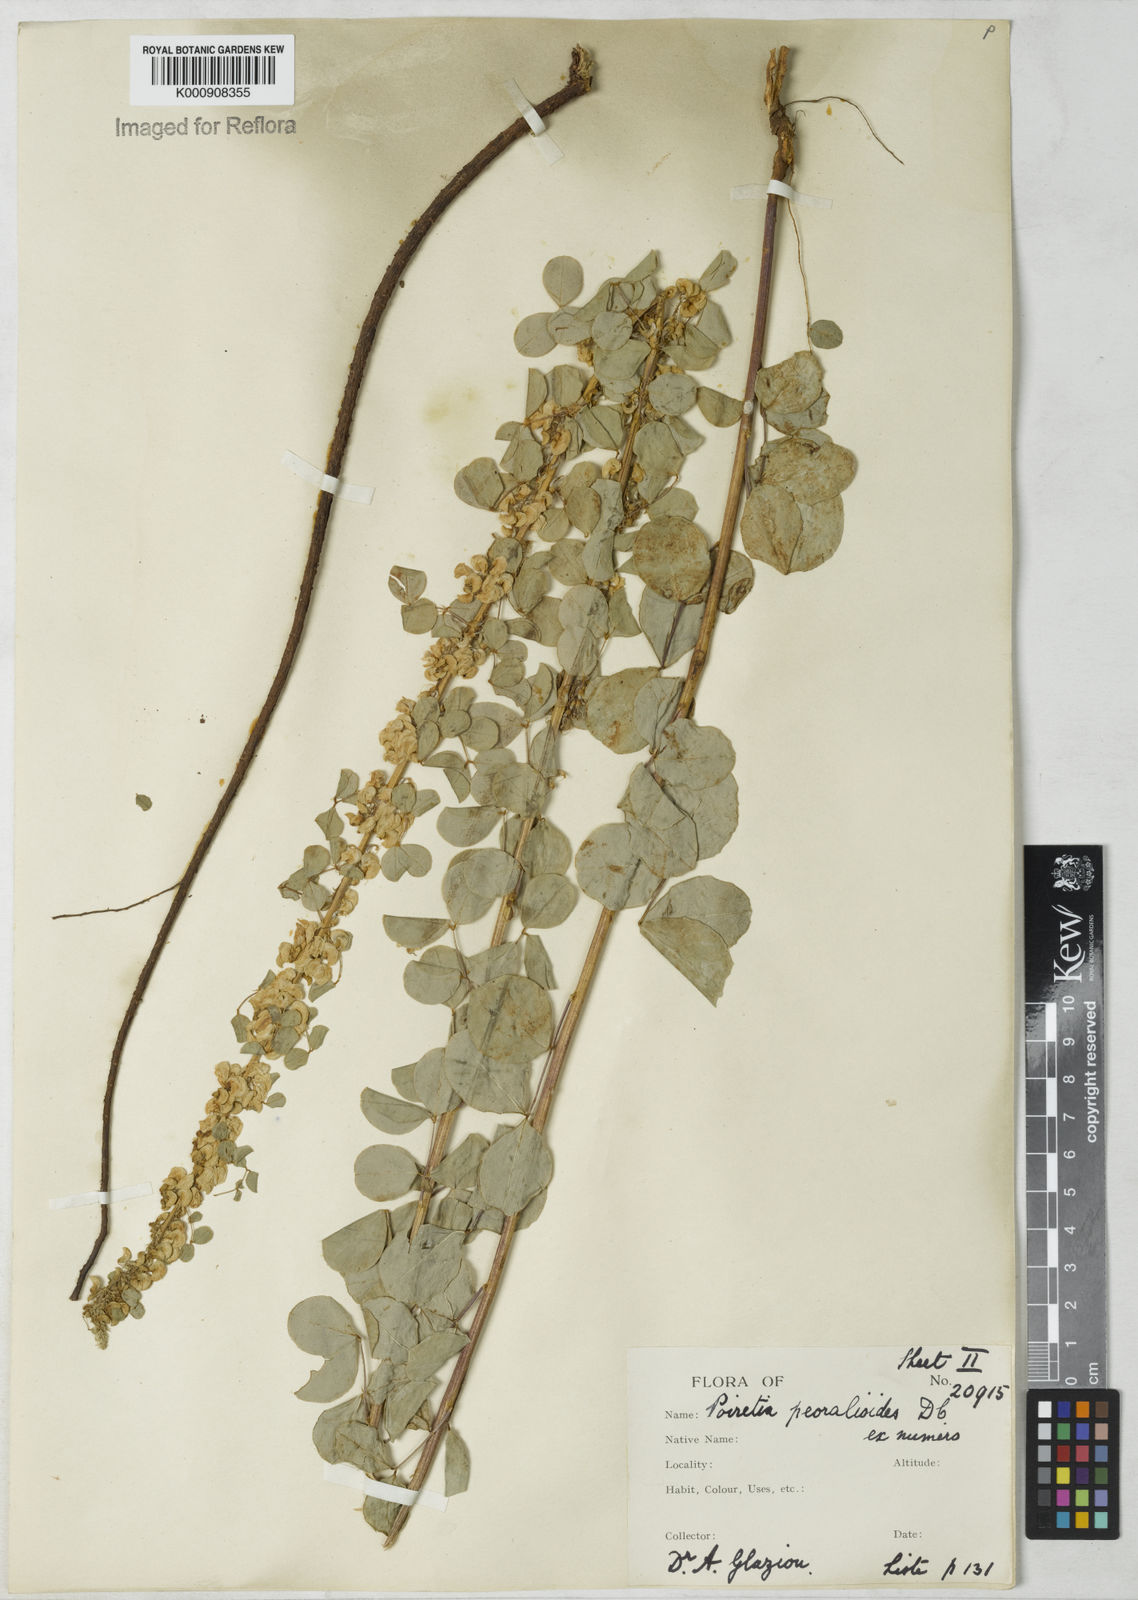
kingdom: Plantae
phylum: Tracheophyta
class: Magnoliopsida
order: Fabales
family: Fabaceae
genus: Poiretia
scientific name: Poiretia
